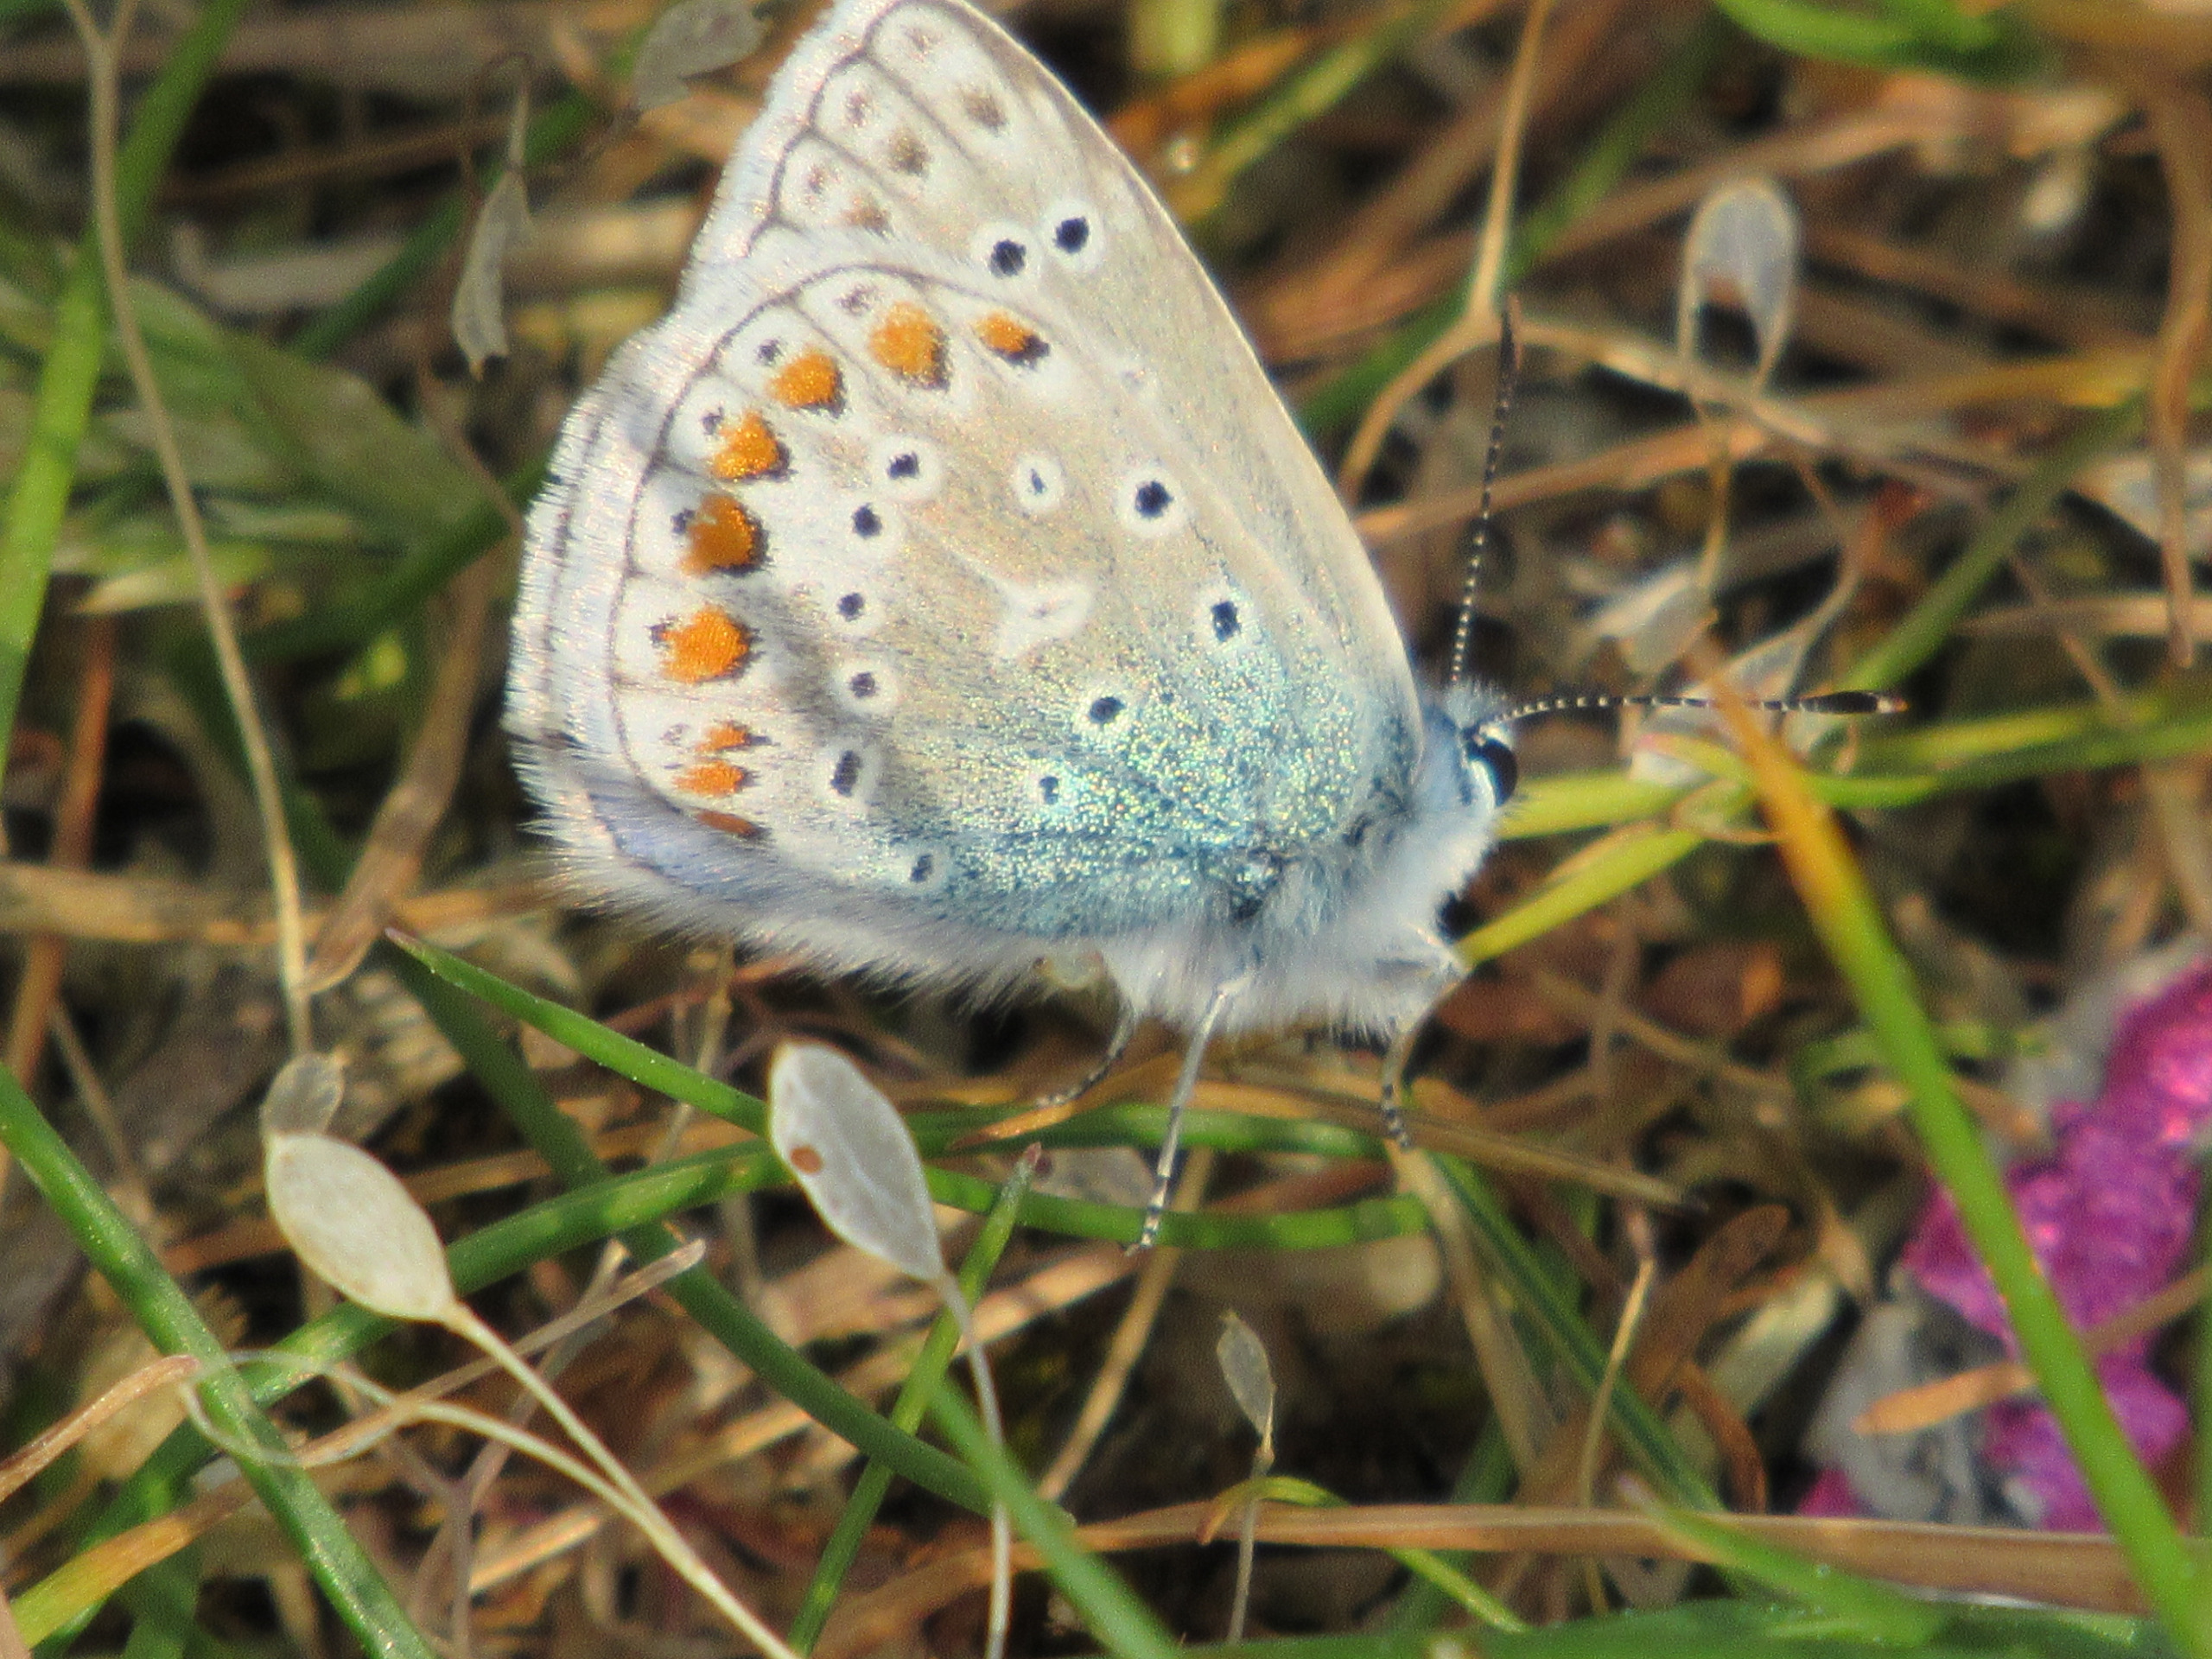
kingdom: Animalia
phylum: Arthropoda
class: Insecta
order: Lepidoptera
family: Lycaenidae
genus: Polyommatus
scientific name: Polyommatus icarus
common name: Almindelig blåfugl
